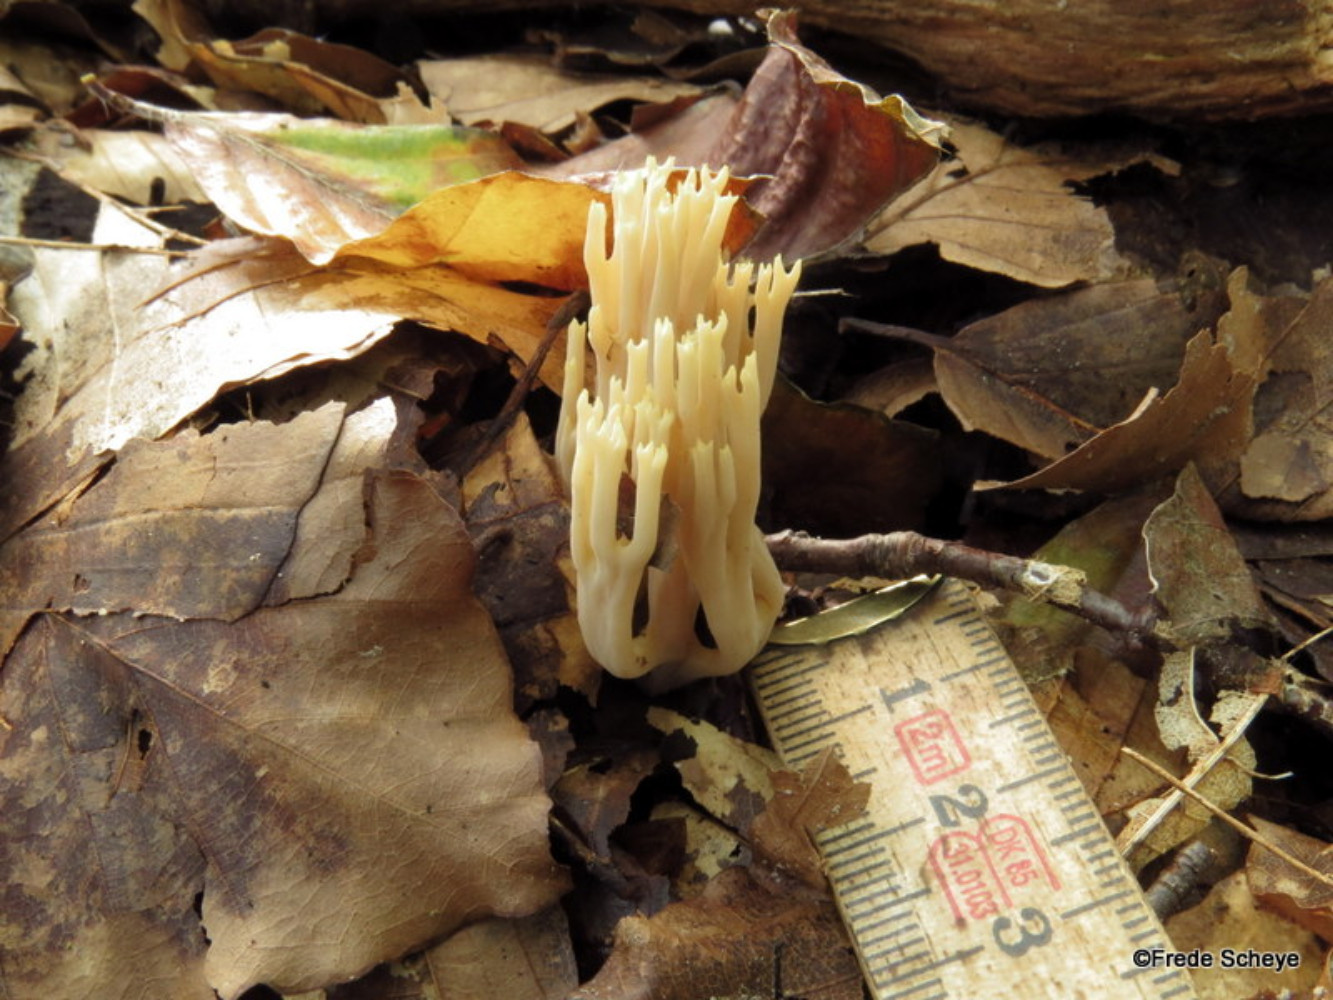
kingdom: Fungi
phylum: Basidiomycota
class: Agaricomycetes
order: Gomphales
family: Gomphaceae
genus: Ramaria
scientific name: Ramaria stricta
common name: rank koralsvamp
